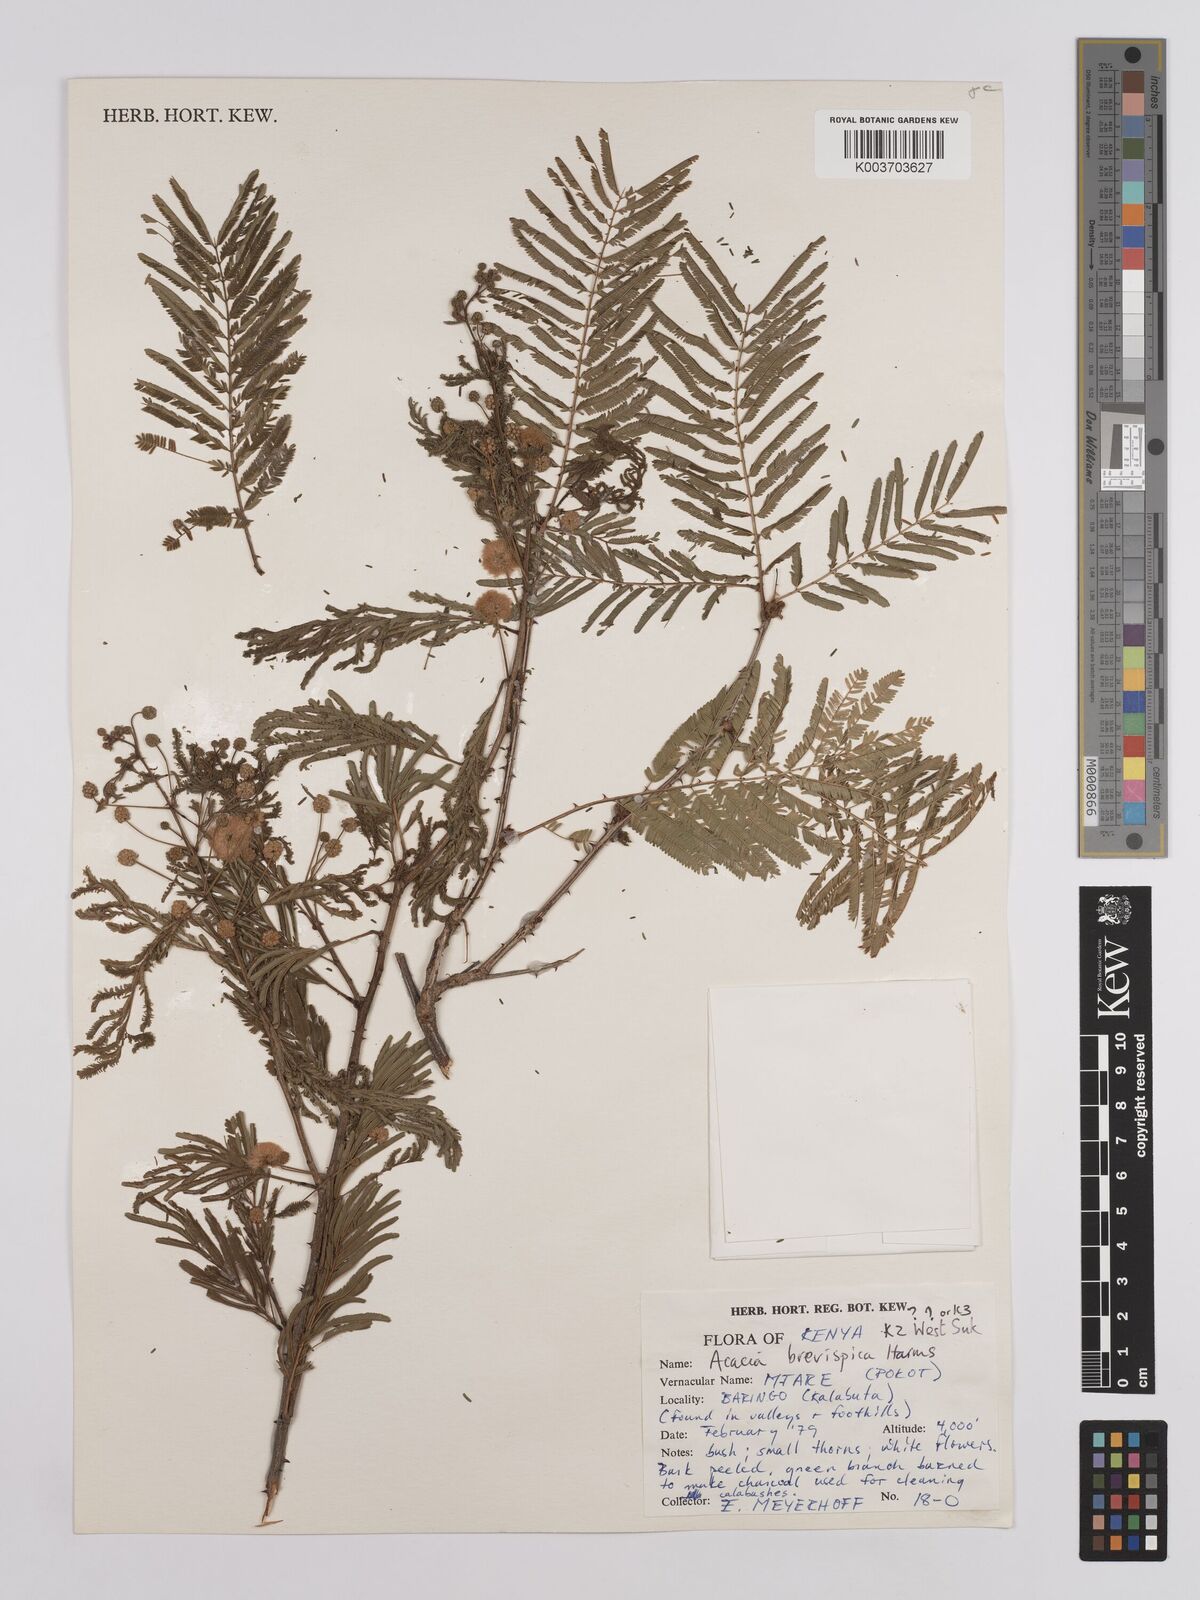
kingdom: Plantae
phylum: Tracheophyta
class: Magnoliopsida
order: Fabales
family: Fabaceae
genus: Senegalia
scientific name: Senegalia brevispica
